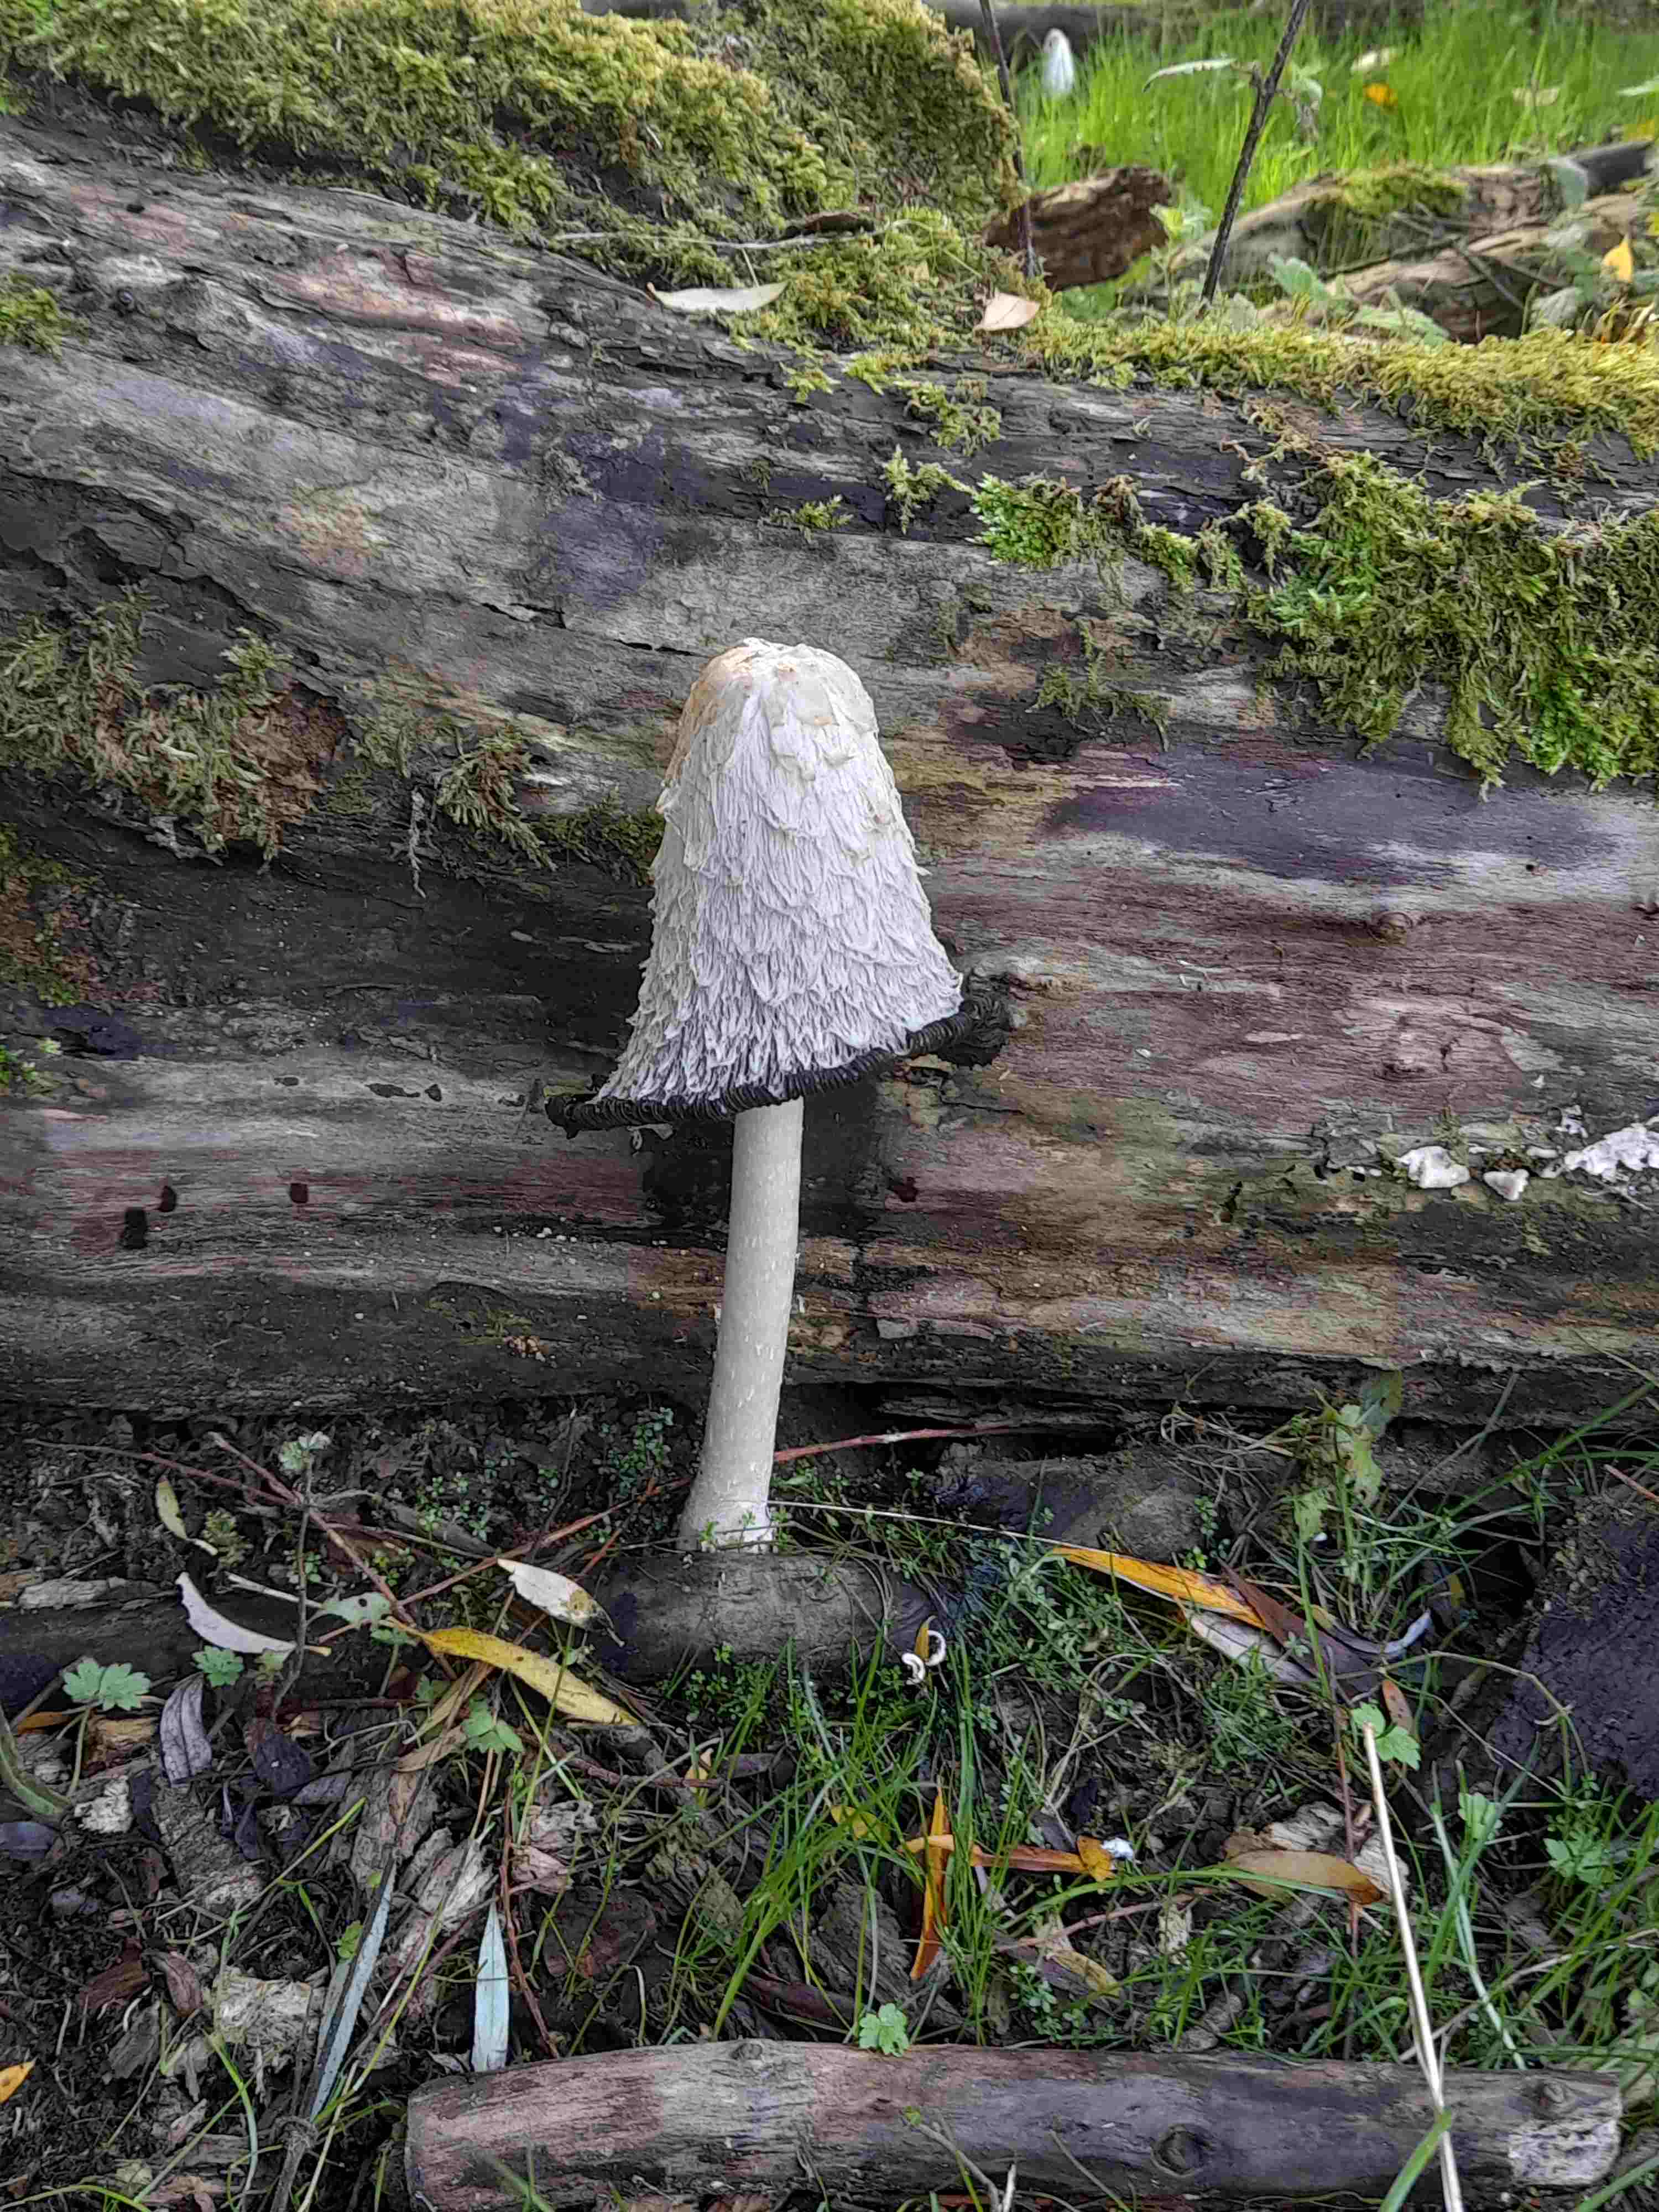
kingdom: Fungi
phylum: Basidiomycota
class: Agaricomycetes
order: Agaricales
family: Agaricaceae
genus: Coprinus
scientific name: Coprinus comatus
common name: stor parykhat
